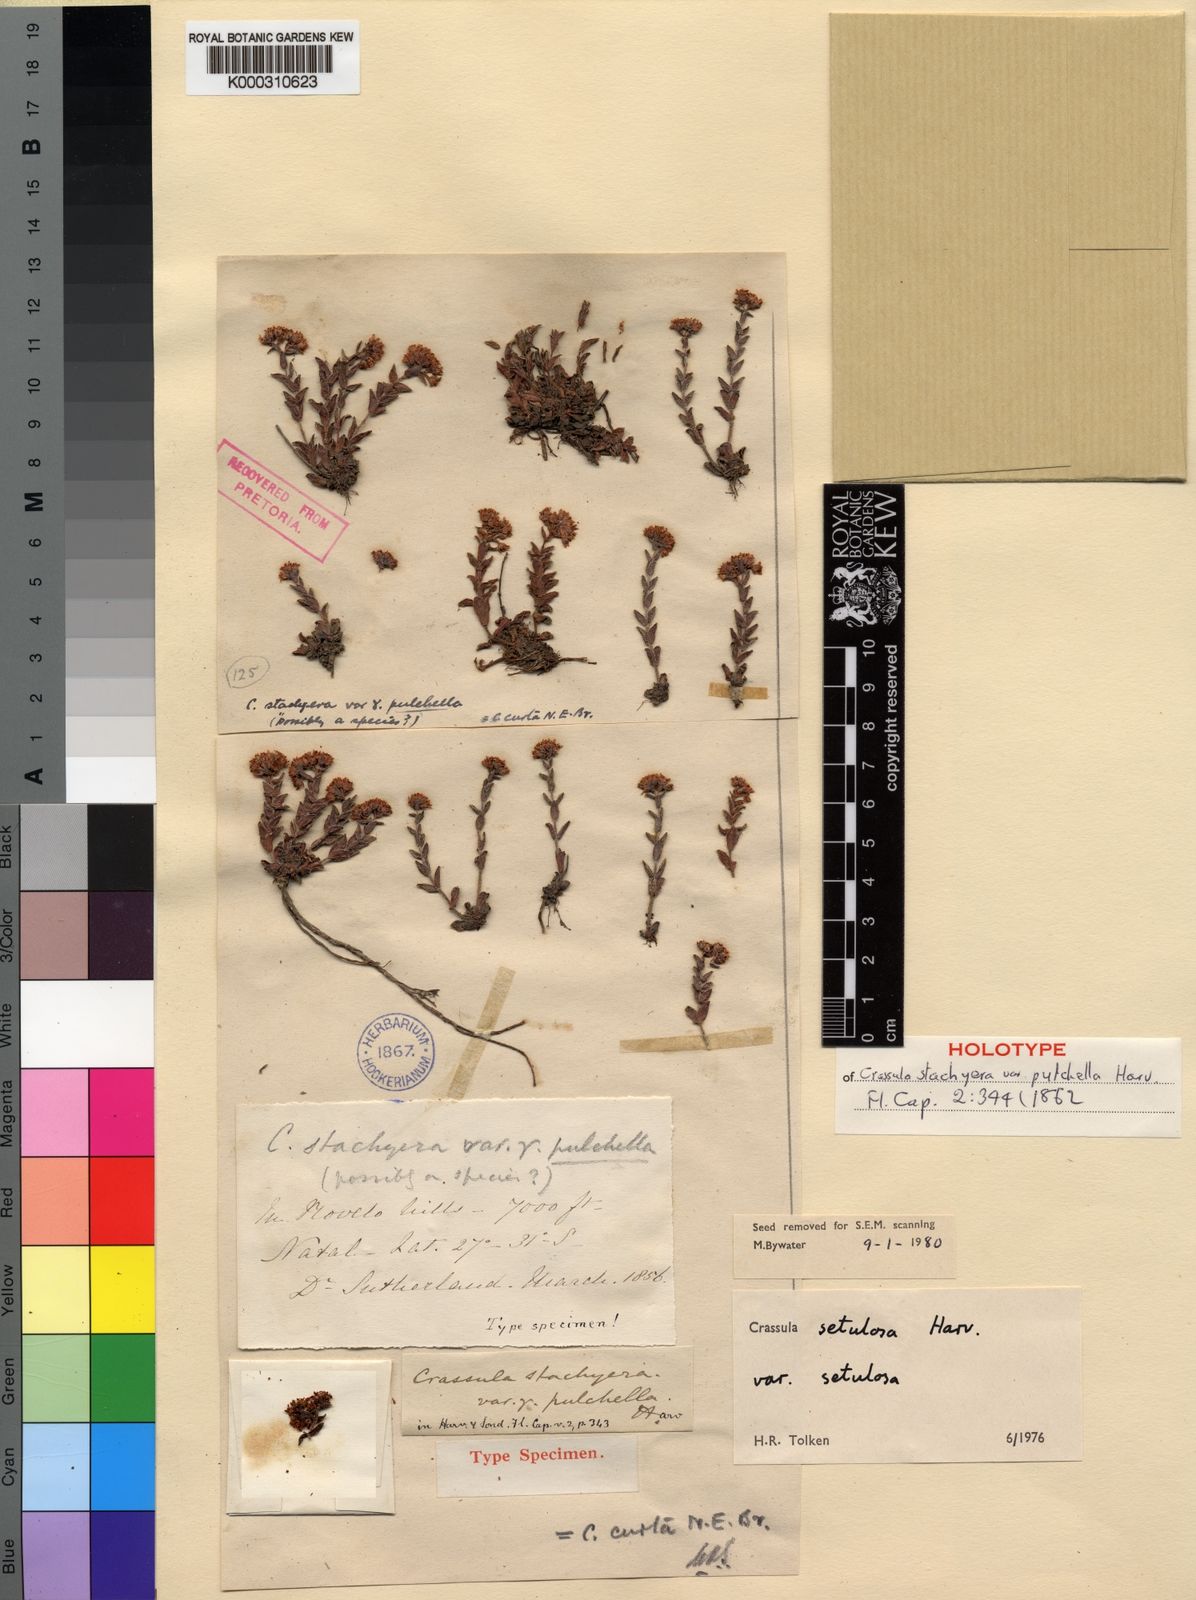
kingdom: Plantae
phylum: Tracheophyta
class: Magnoliopsida
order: Saxifragales
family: Crassulaceae
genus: Crassula
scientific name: Crassula setulosa
